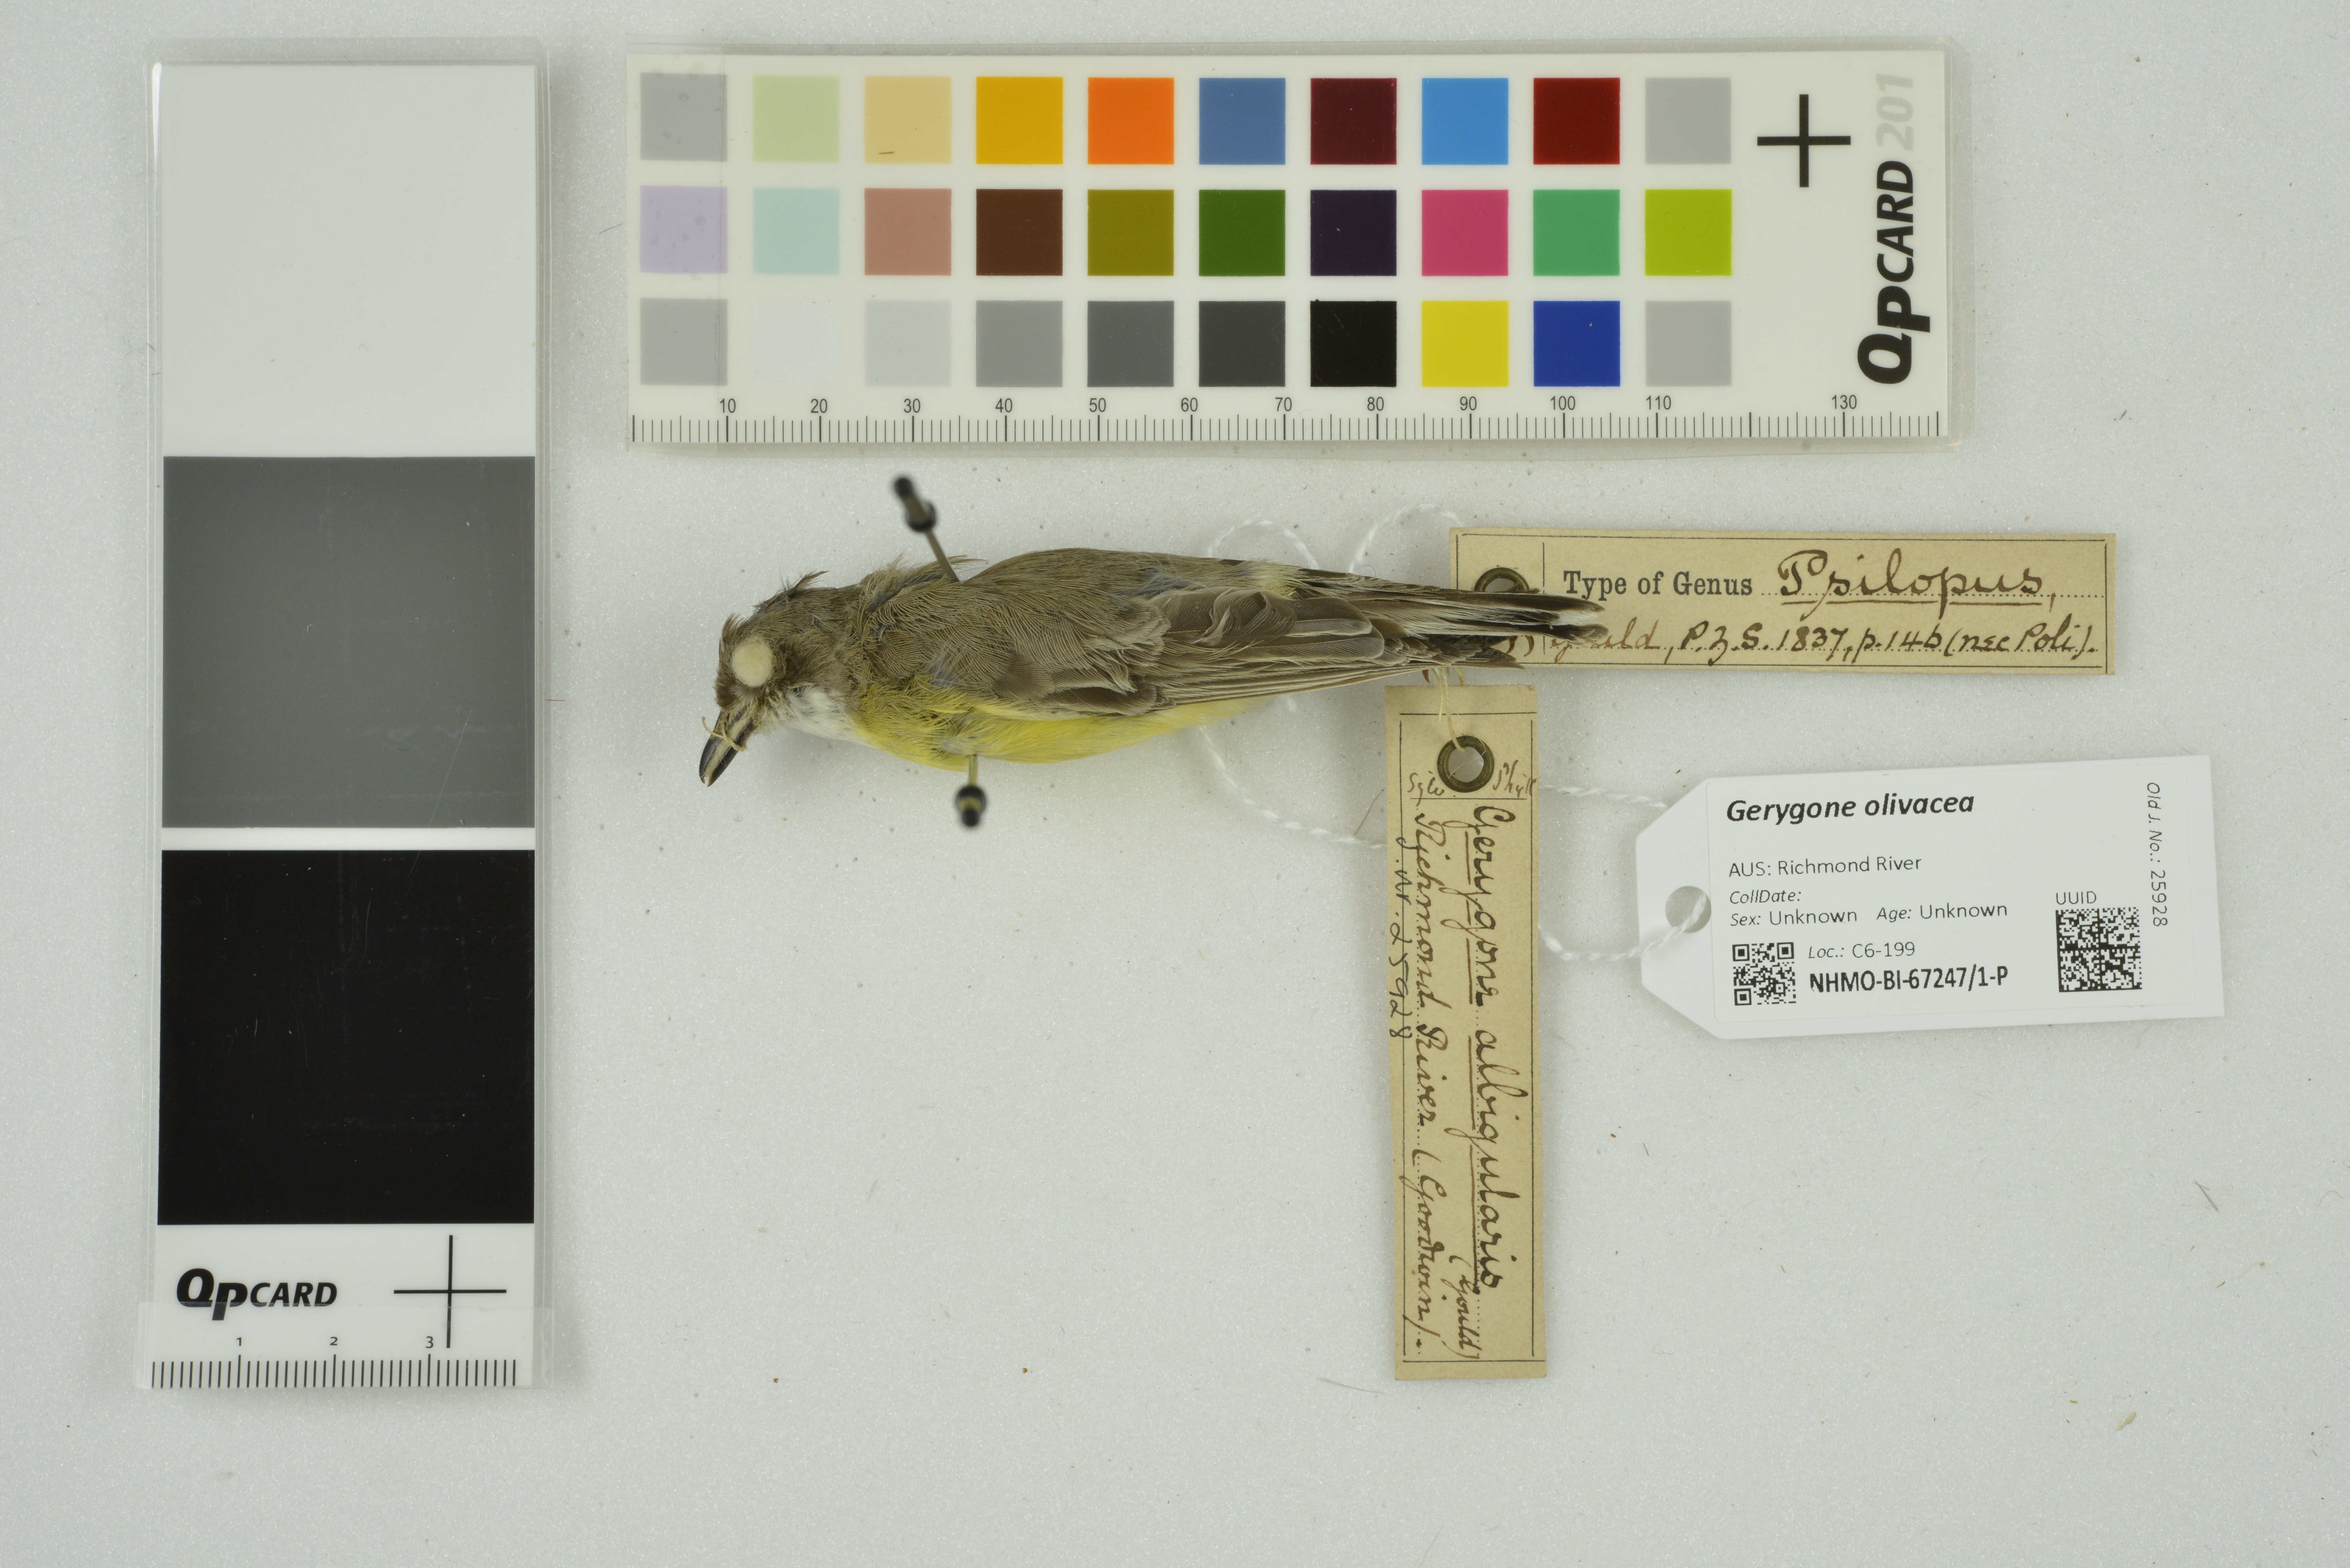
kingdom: Animalia
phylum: Chordata
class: Aves
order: Passeriformes
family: Acanthizidae
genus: Gerygone
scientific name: Gerygone olivacea
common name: White-throated gerygone
